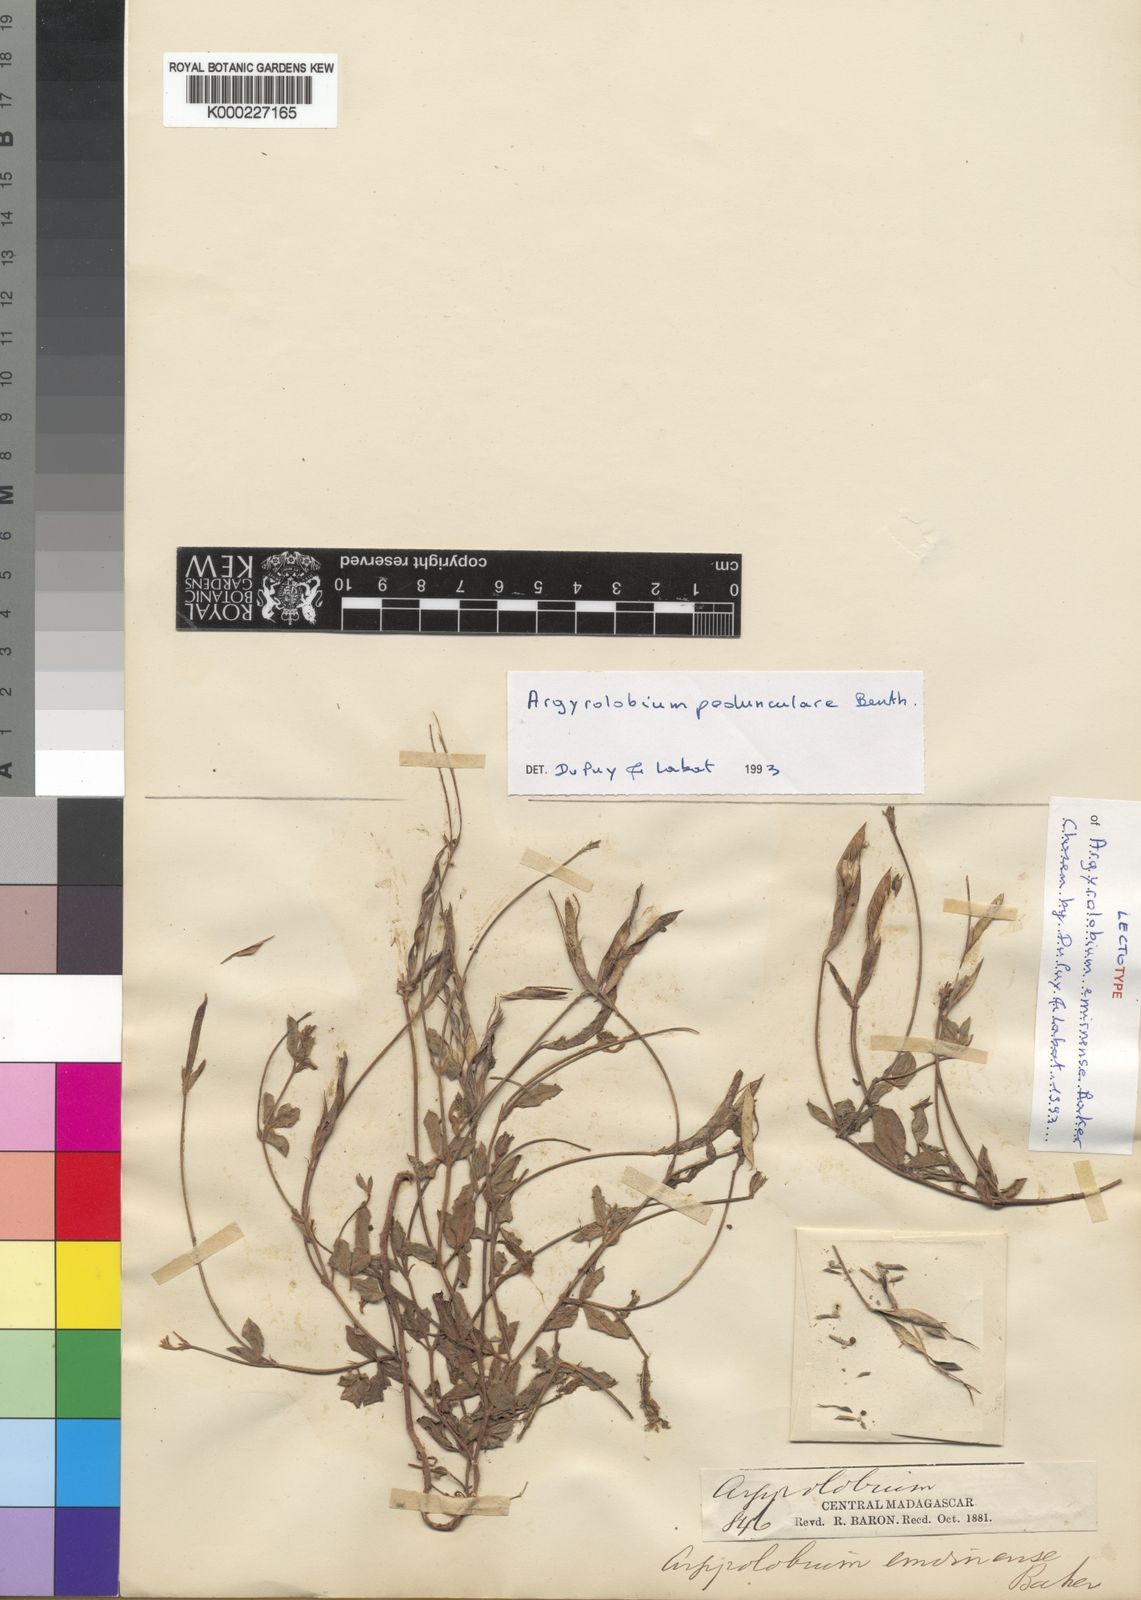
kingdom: Plantae
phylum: Tracheophyta
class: Magnoliopsida
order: Fabales
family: Fabaceae
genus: Argyrolobium
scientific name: Argyrolobium pedunculare
